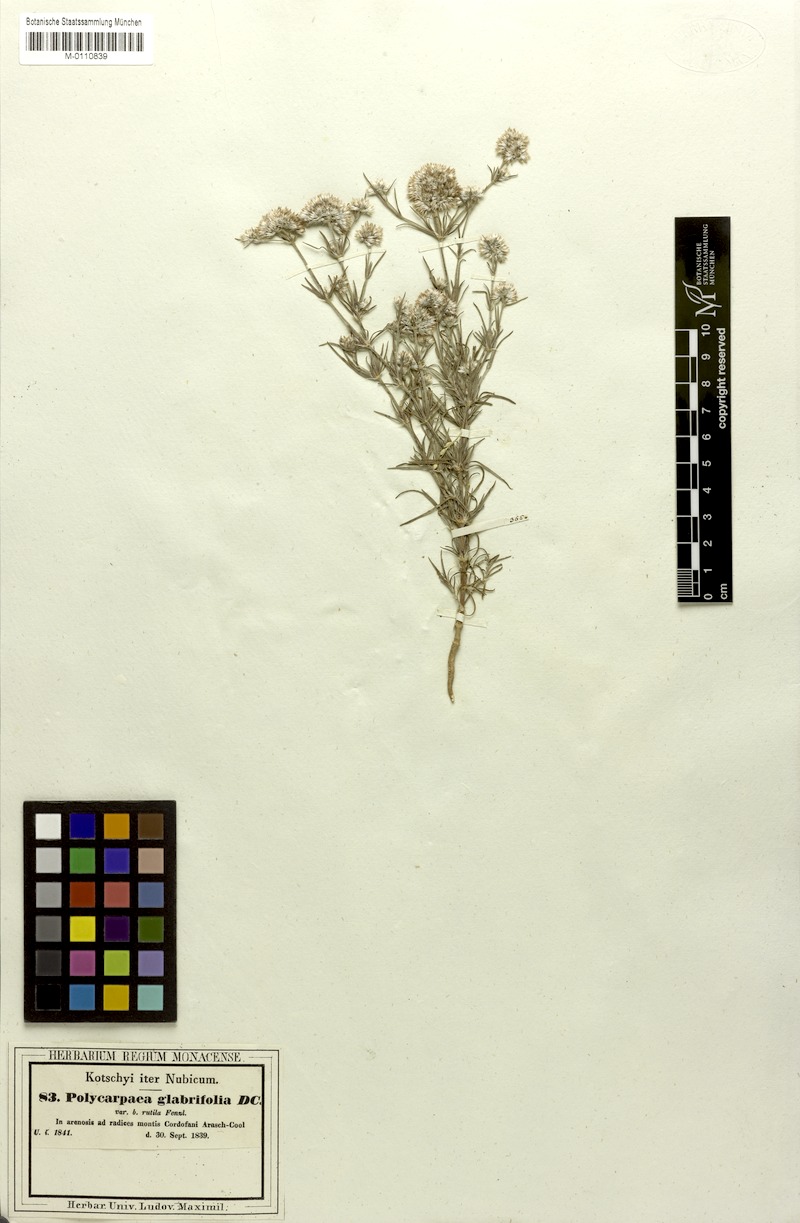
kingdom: Plantae
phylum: Tracheophyta
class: Magnoliopsida
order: Caryophyllales
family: Caryophyllaceae
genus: Polycarpaea
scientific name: Polycarpaea corymbosa
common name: Oldman's cap
